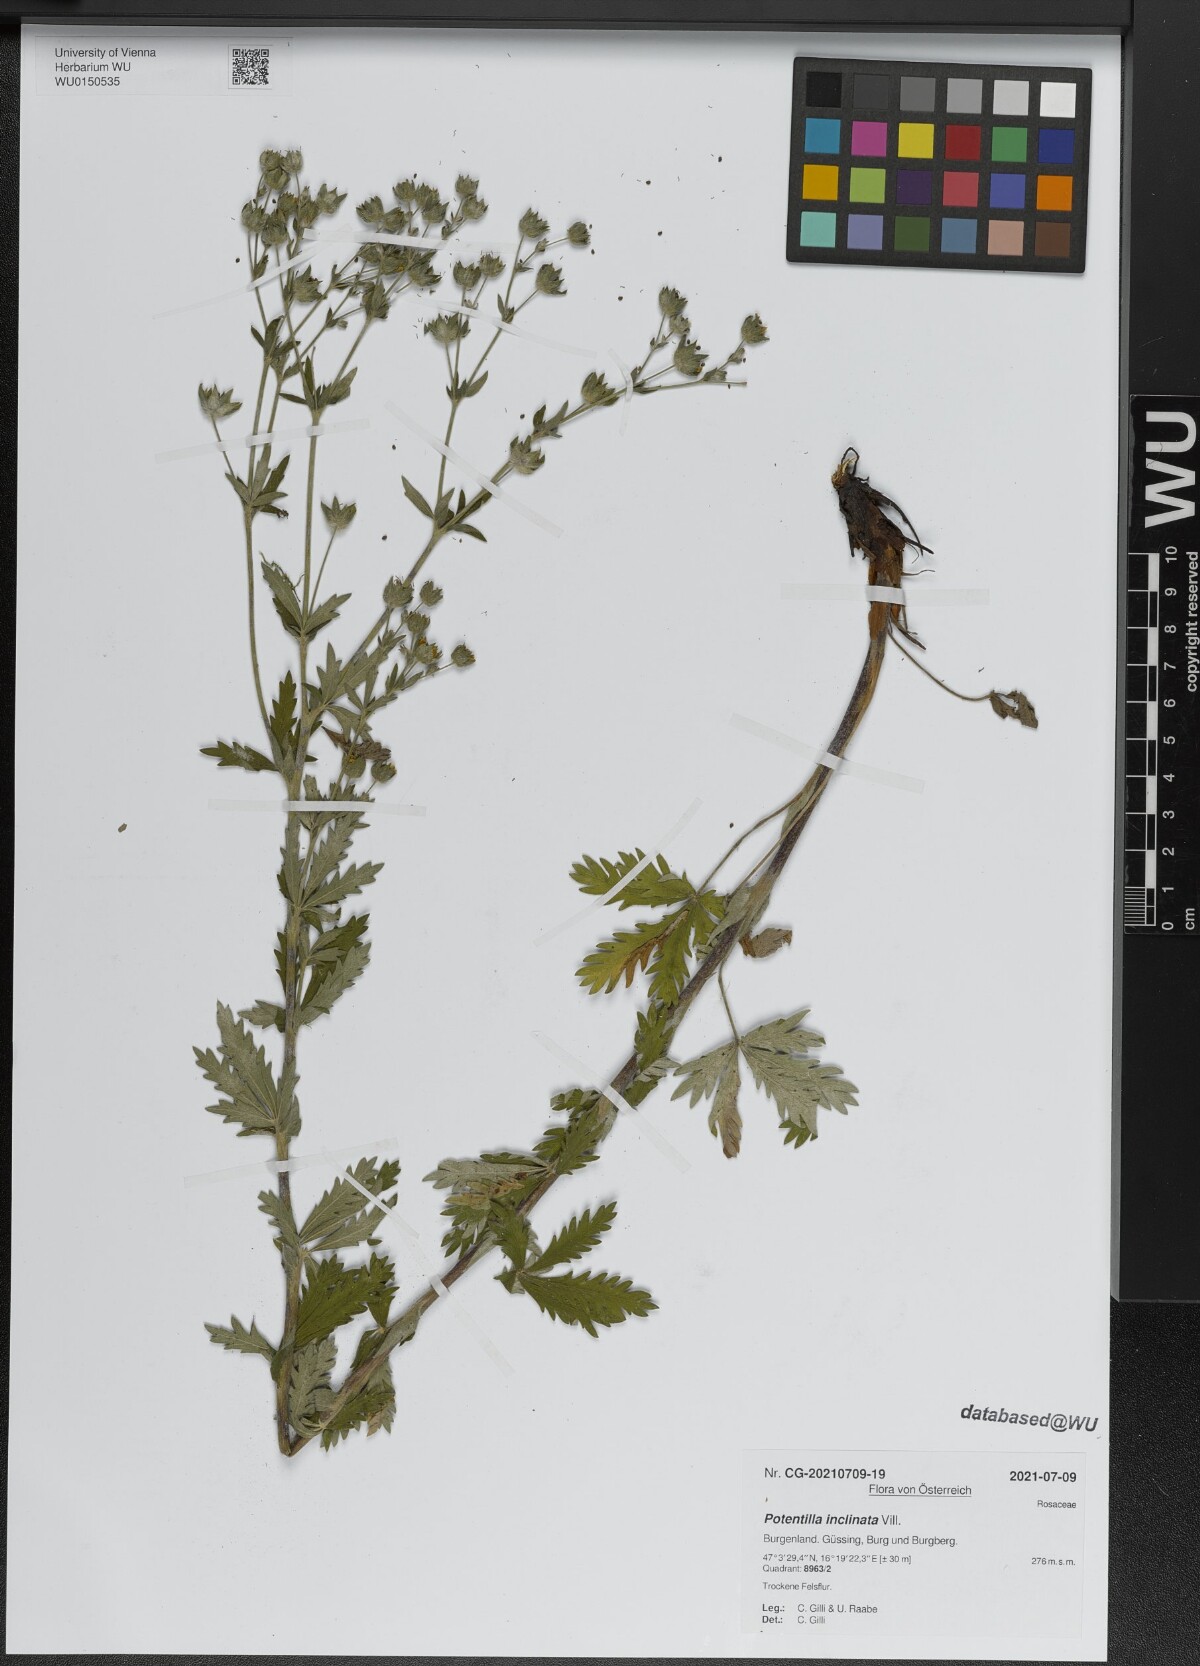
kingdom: Plantae
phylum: Tracheophyta
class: Magnoliopsida
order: Rosales
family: Rosaceae
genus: Potentilla
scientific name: Potentilla inclinata
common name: Grey cinquefoil
